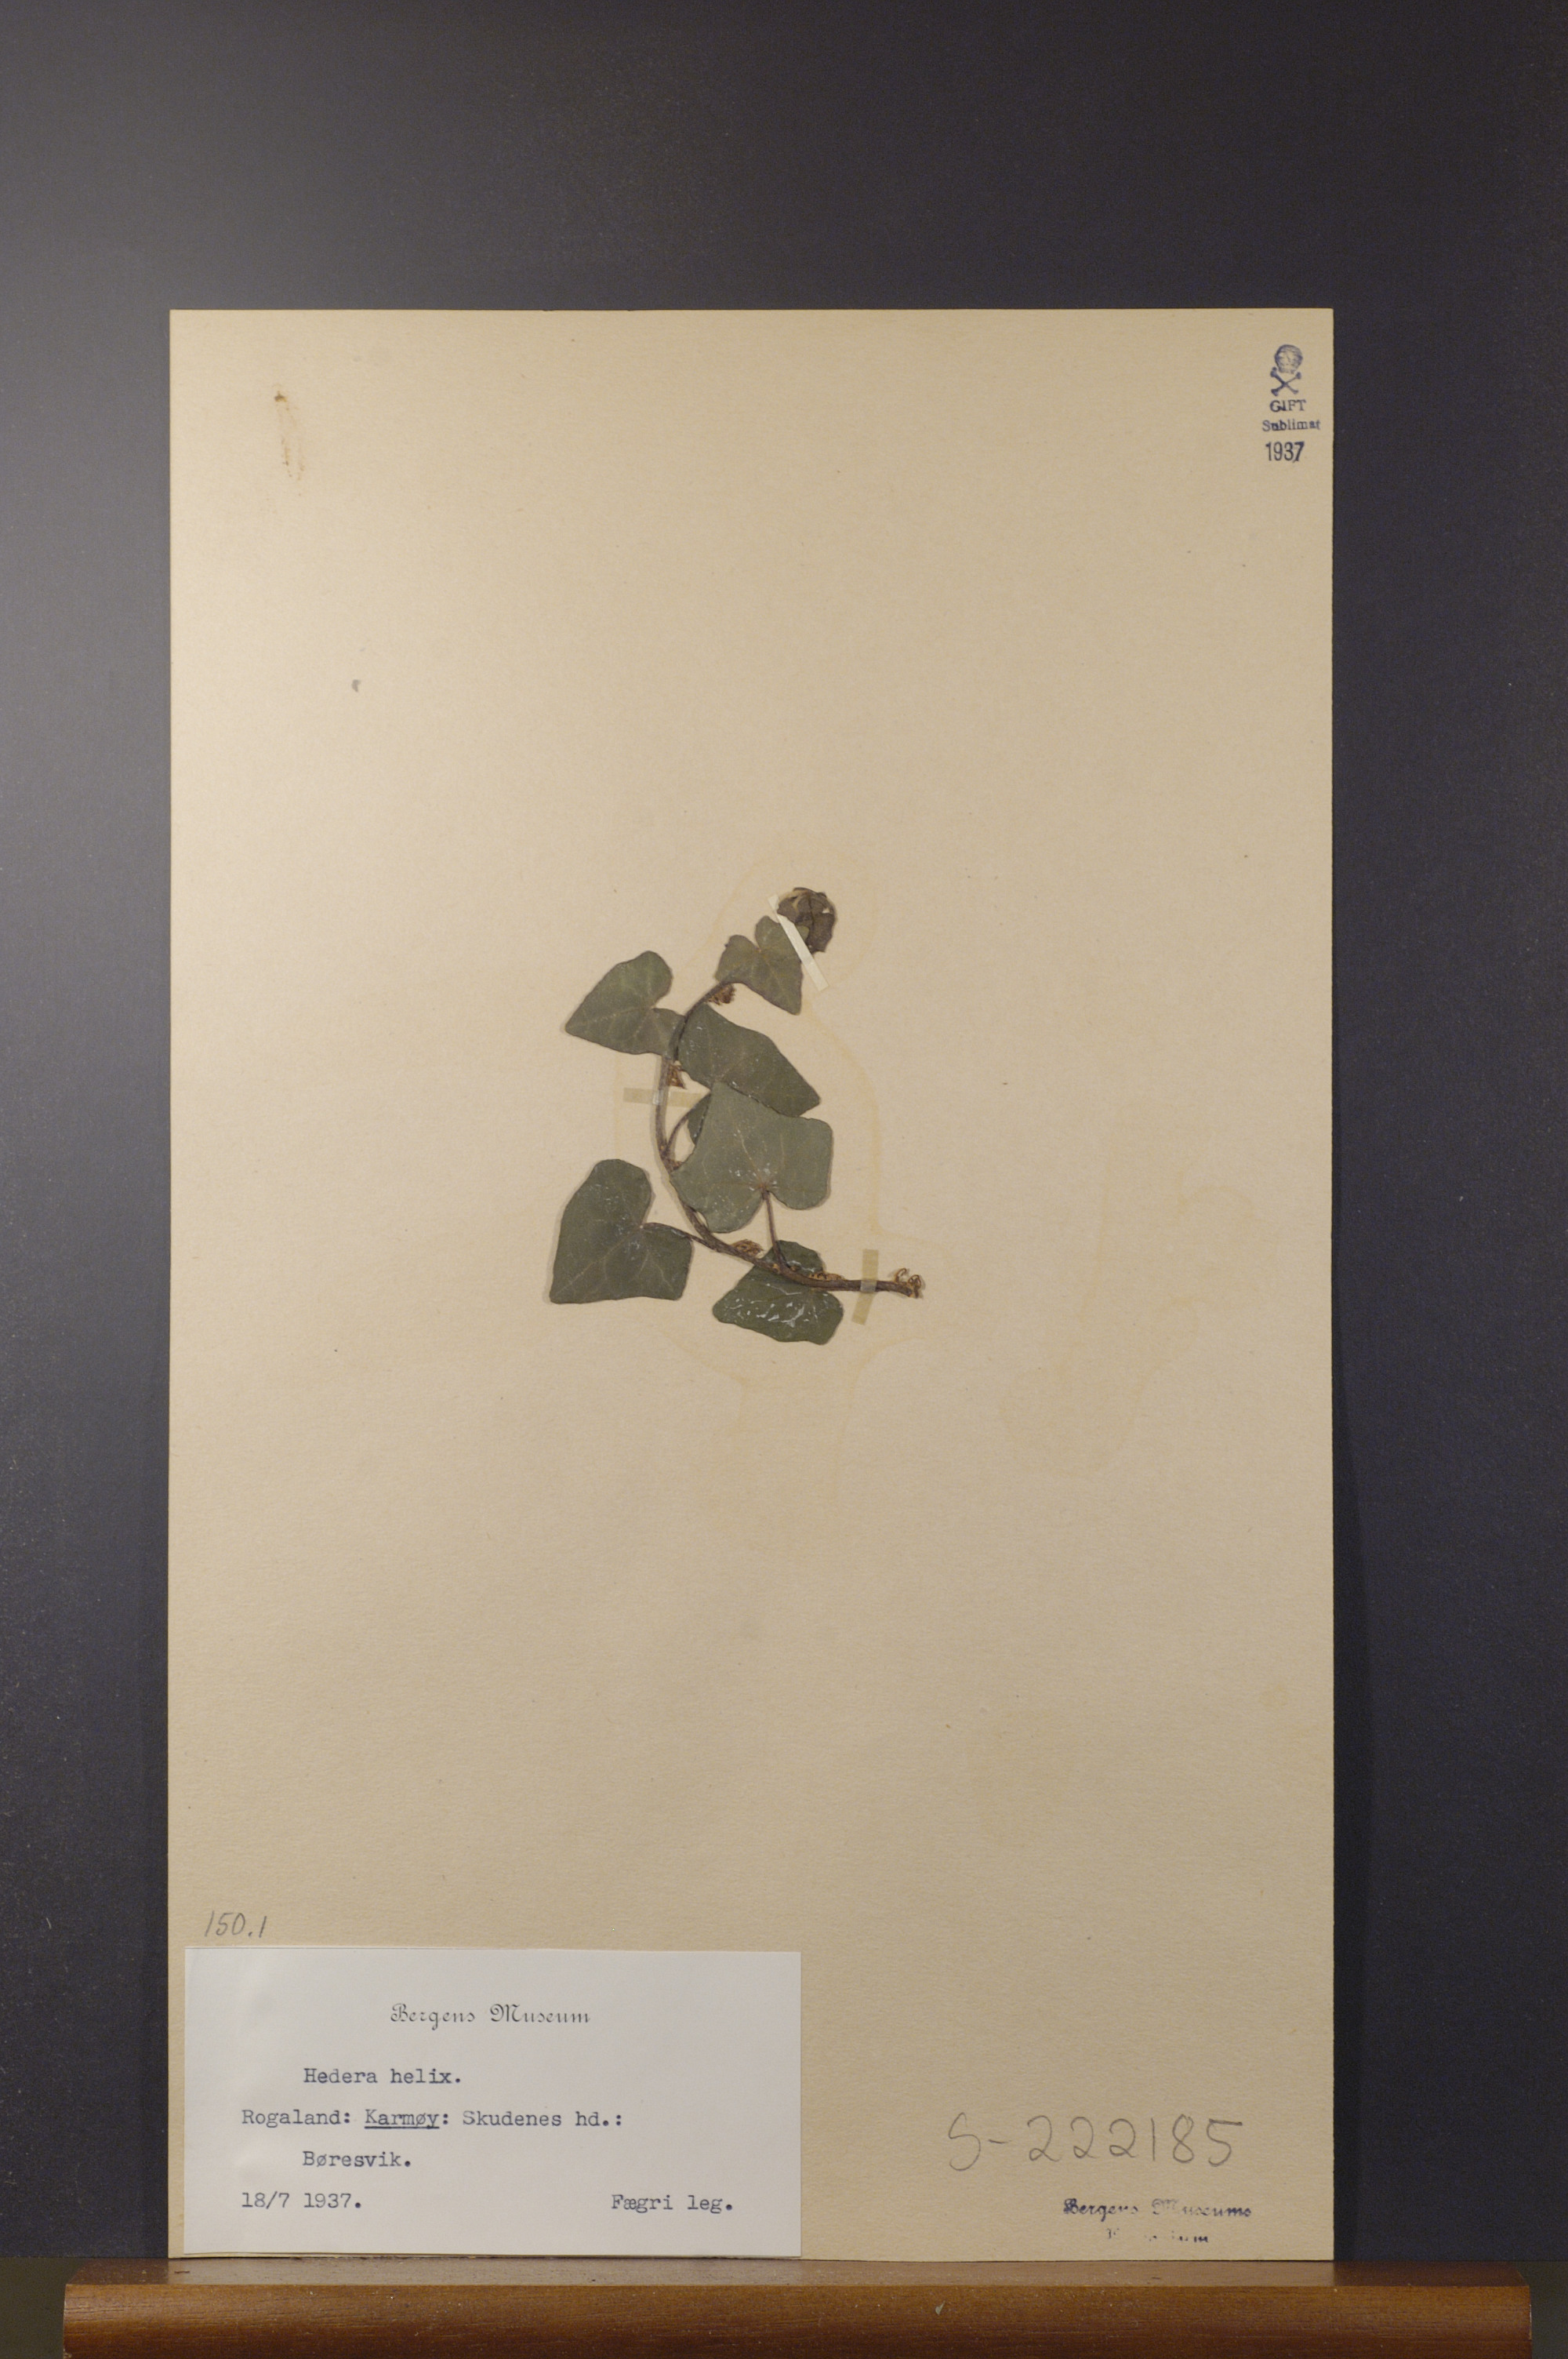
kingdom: Plantae
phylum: Tracheophyta
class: Magnoliopsida
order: Apiales
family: Araliaceae
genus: Hedera
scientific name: Hedera helix
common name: Ivy
